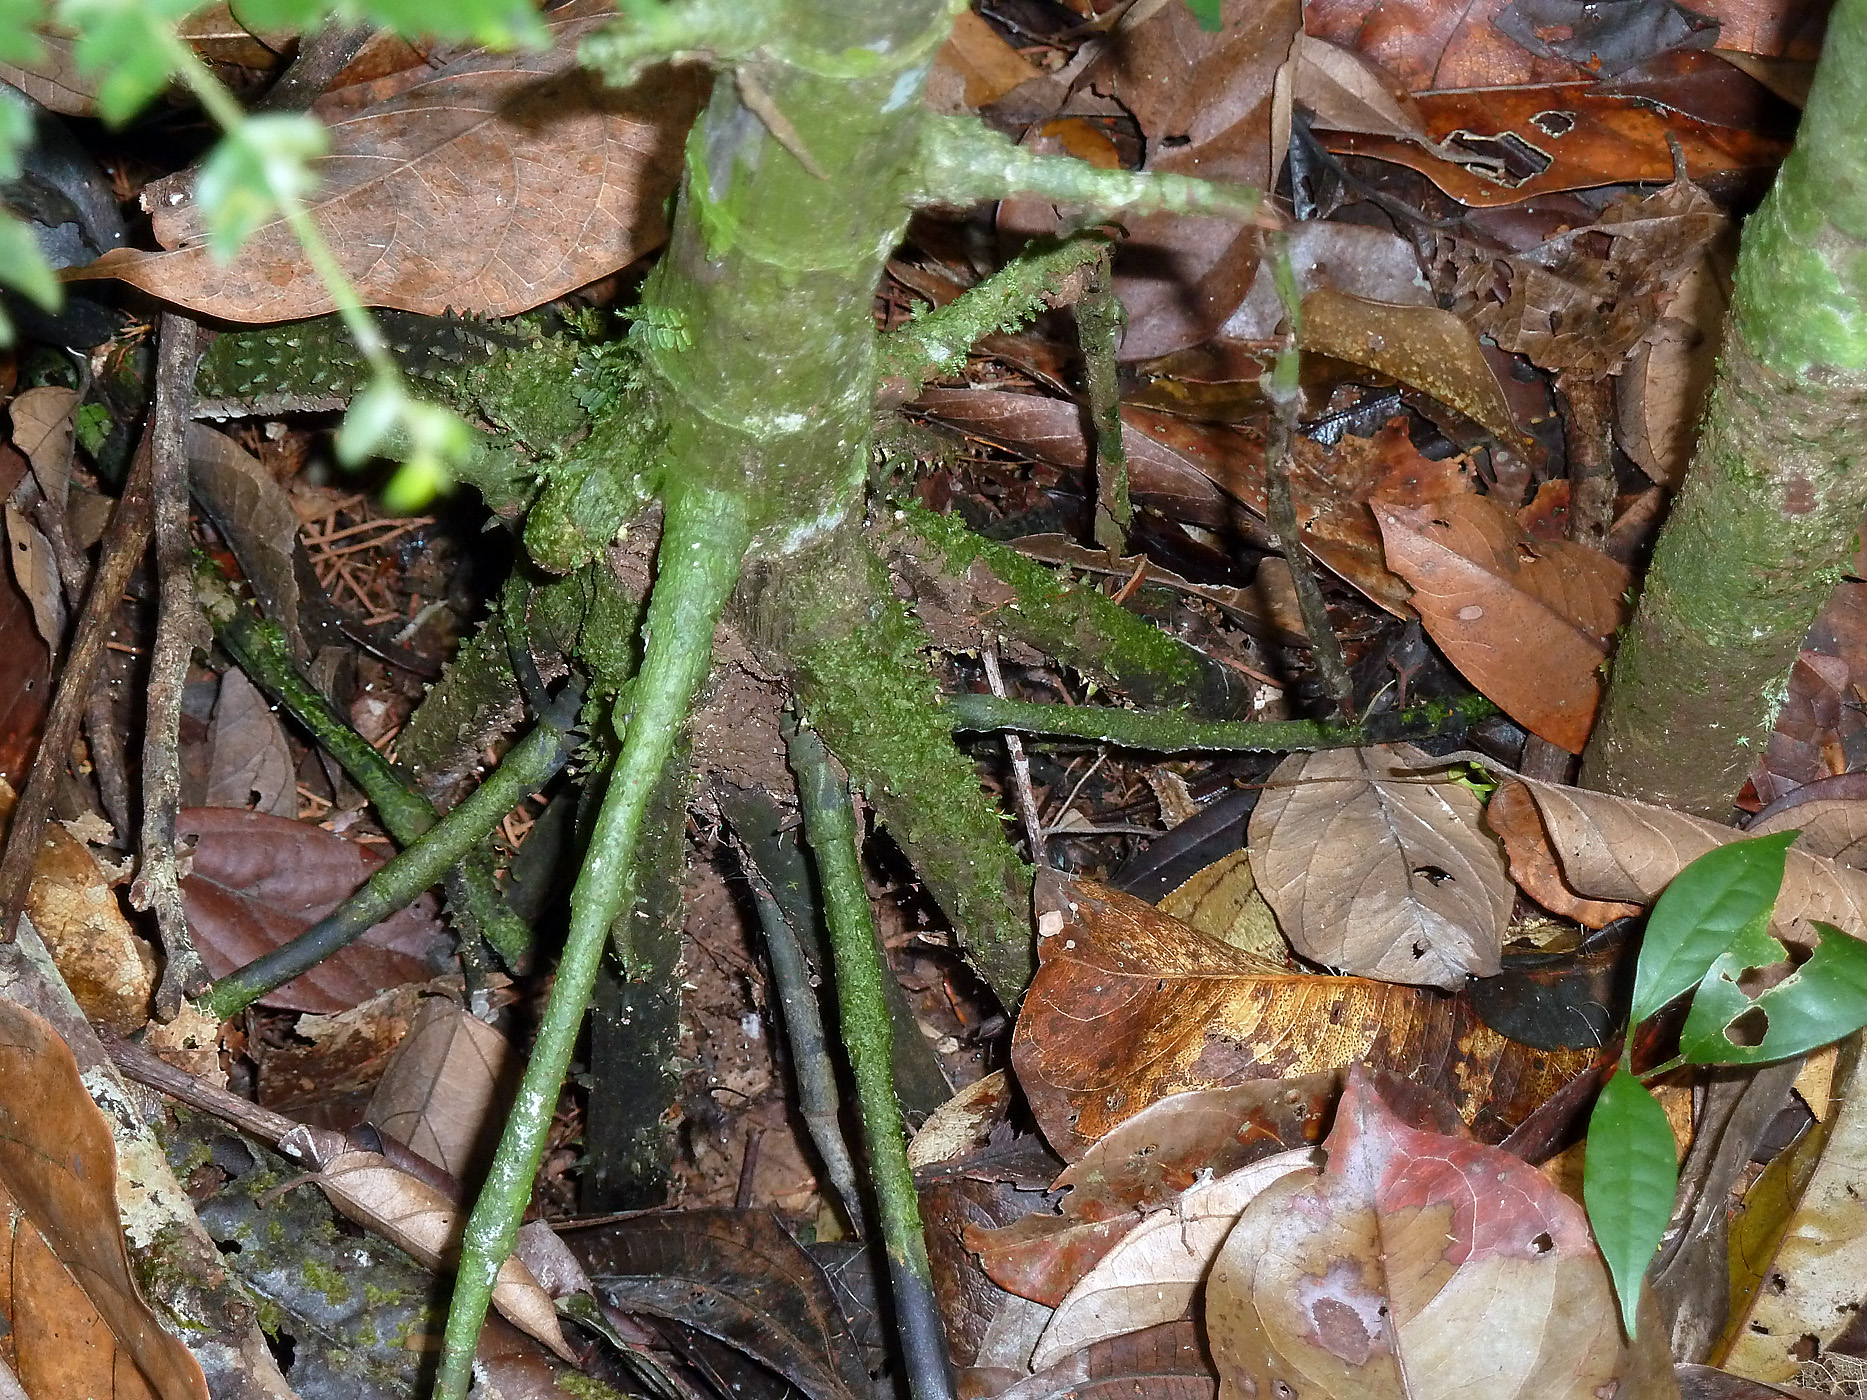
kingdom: Plantae
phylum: Tracheophyta
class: Liliopsida
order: Arecales
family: Arecaceae
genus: Wettinia
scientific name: Wettinia drudei
